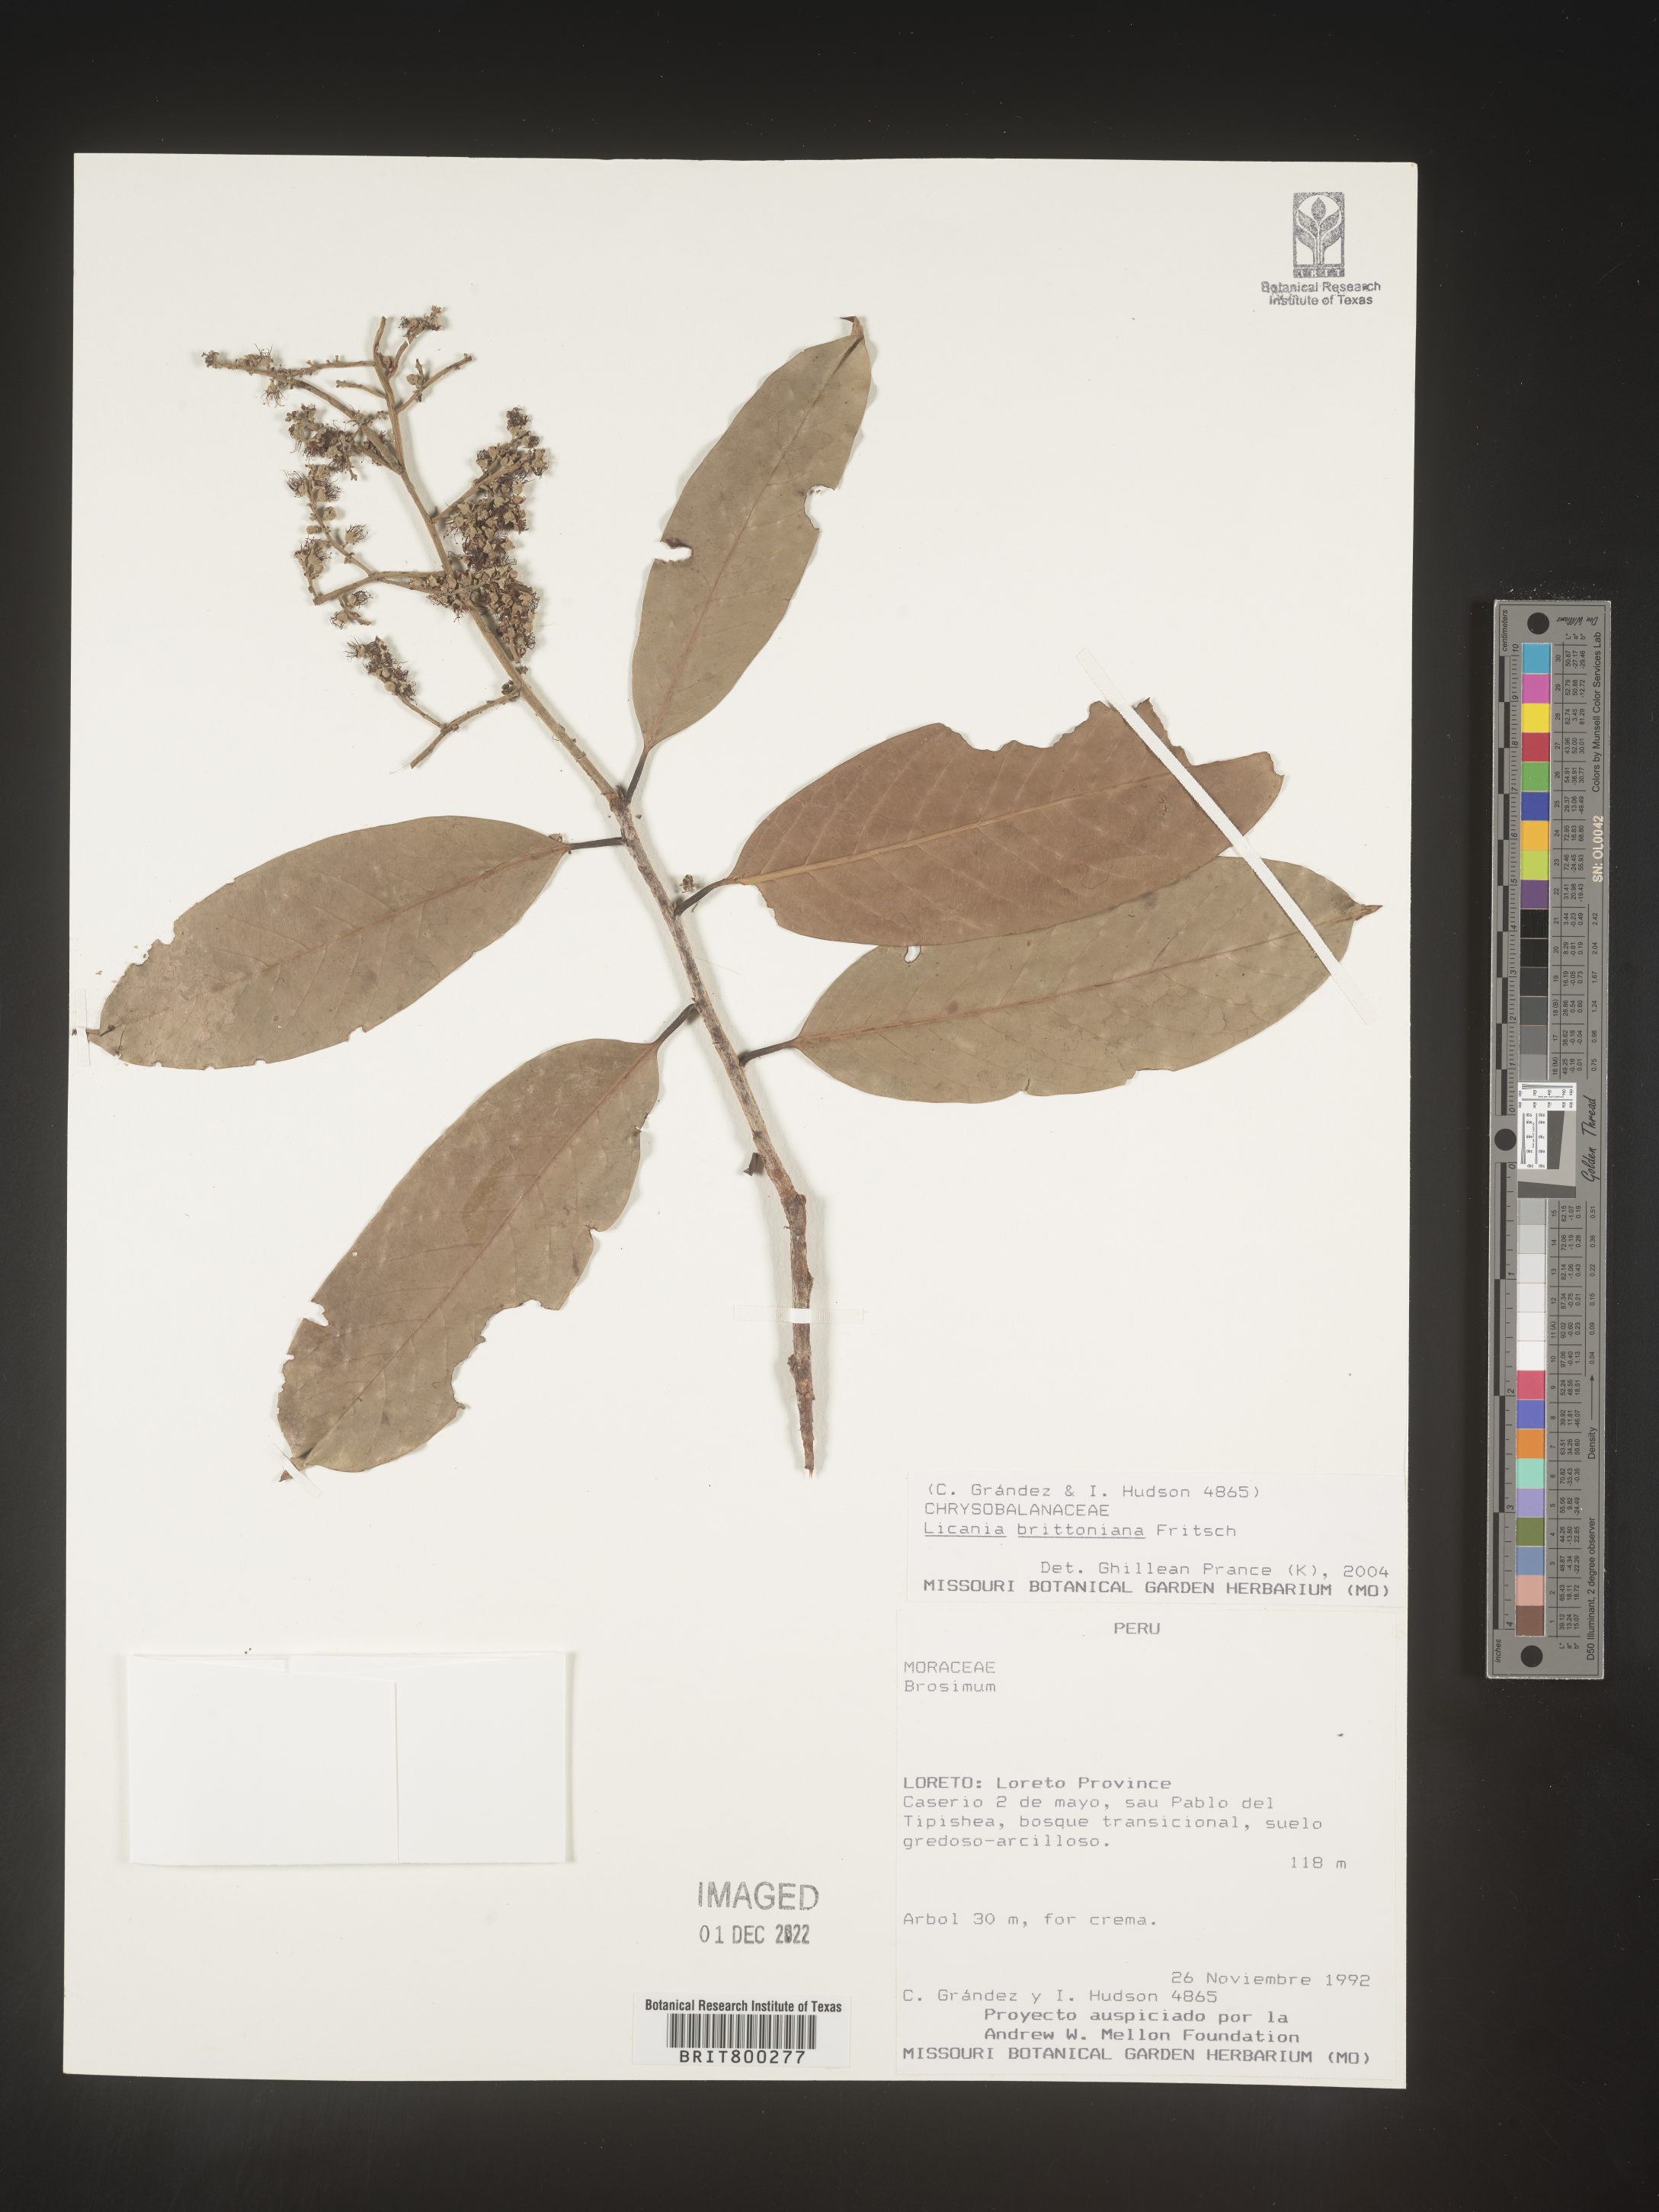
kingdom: Plantae
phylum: Tracheophyta
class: Magnoliopsida
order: Malpighiales
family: Chrysobalanaceae
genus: Geobalanus
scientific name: Geobalanus oblongifolius
